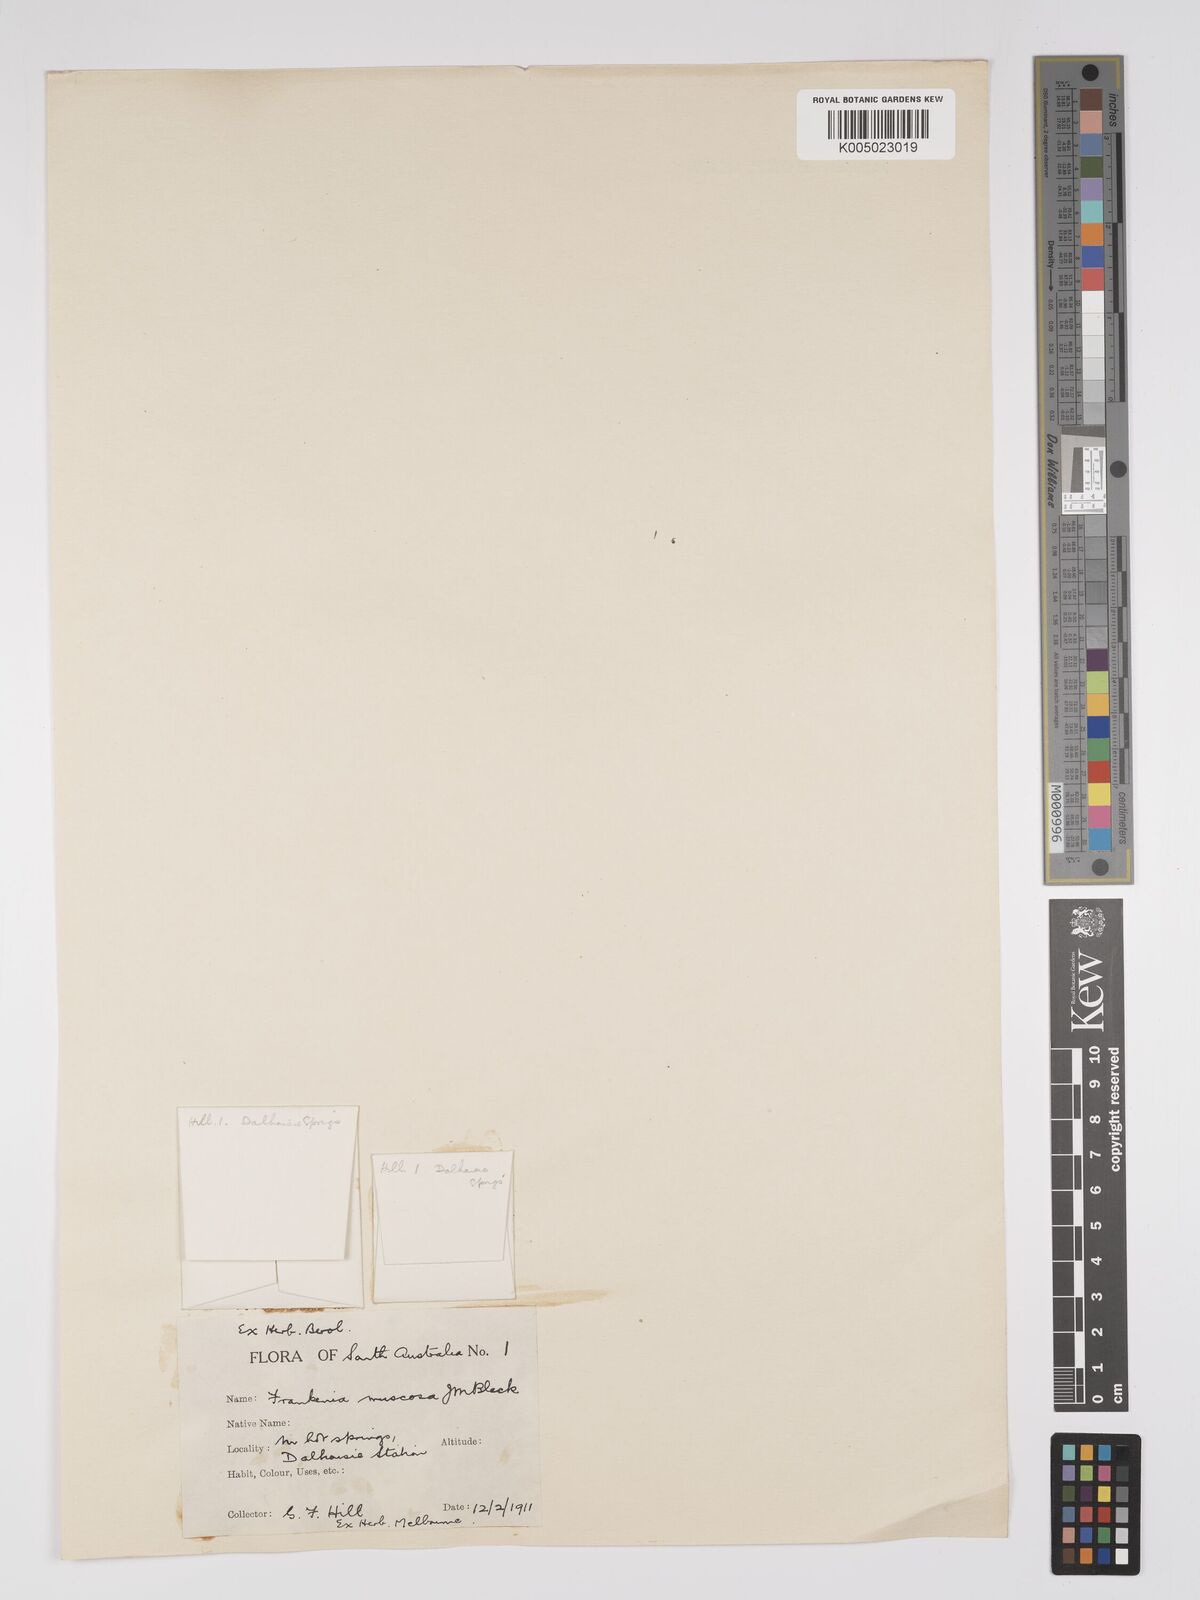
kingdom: Plantae
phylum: Tracheophyta
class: Magnoliopsida
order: Caryophyllales
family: Frankeniaceae
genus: Frankenia
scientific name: Frankenia muscosa
